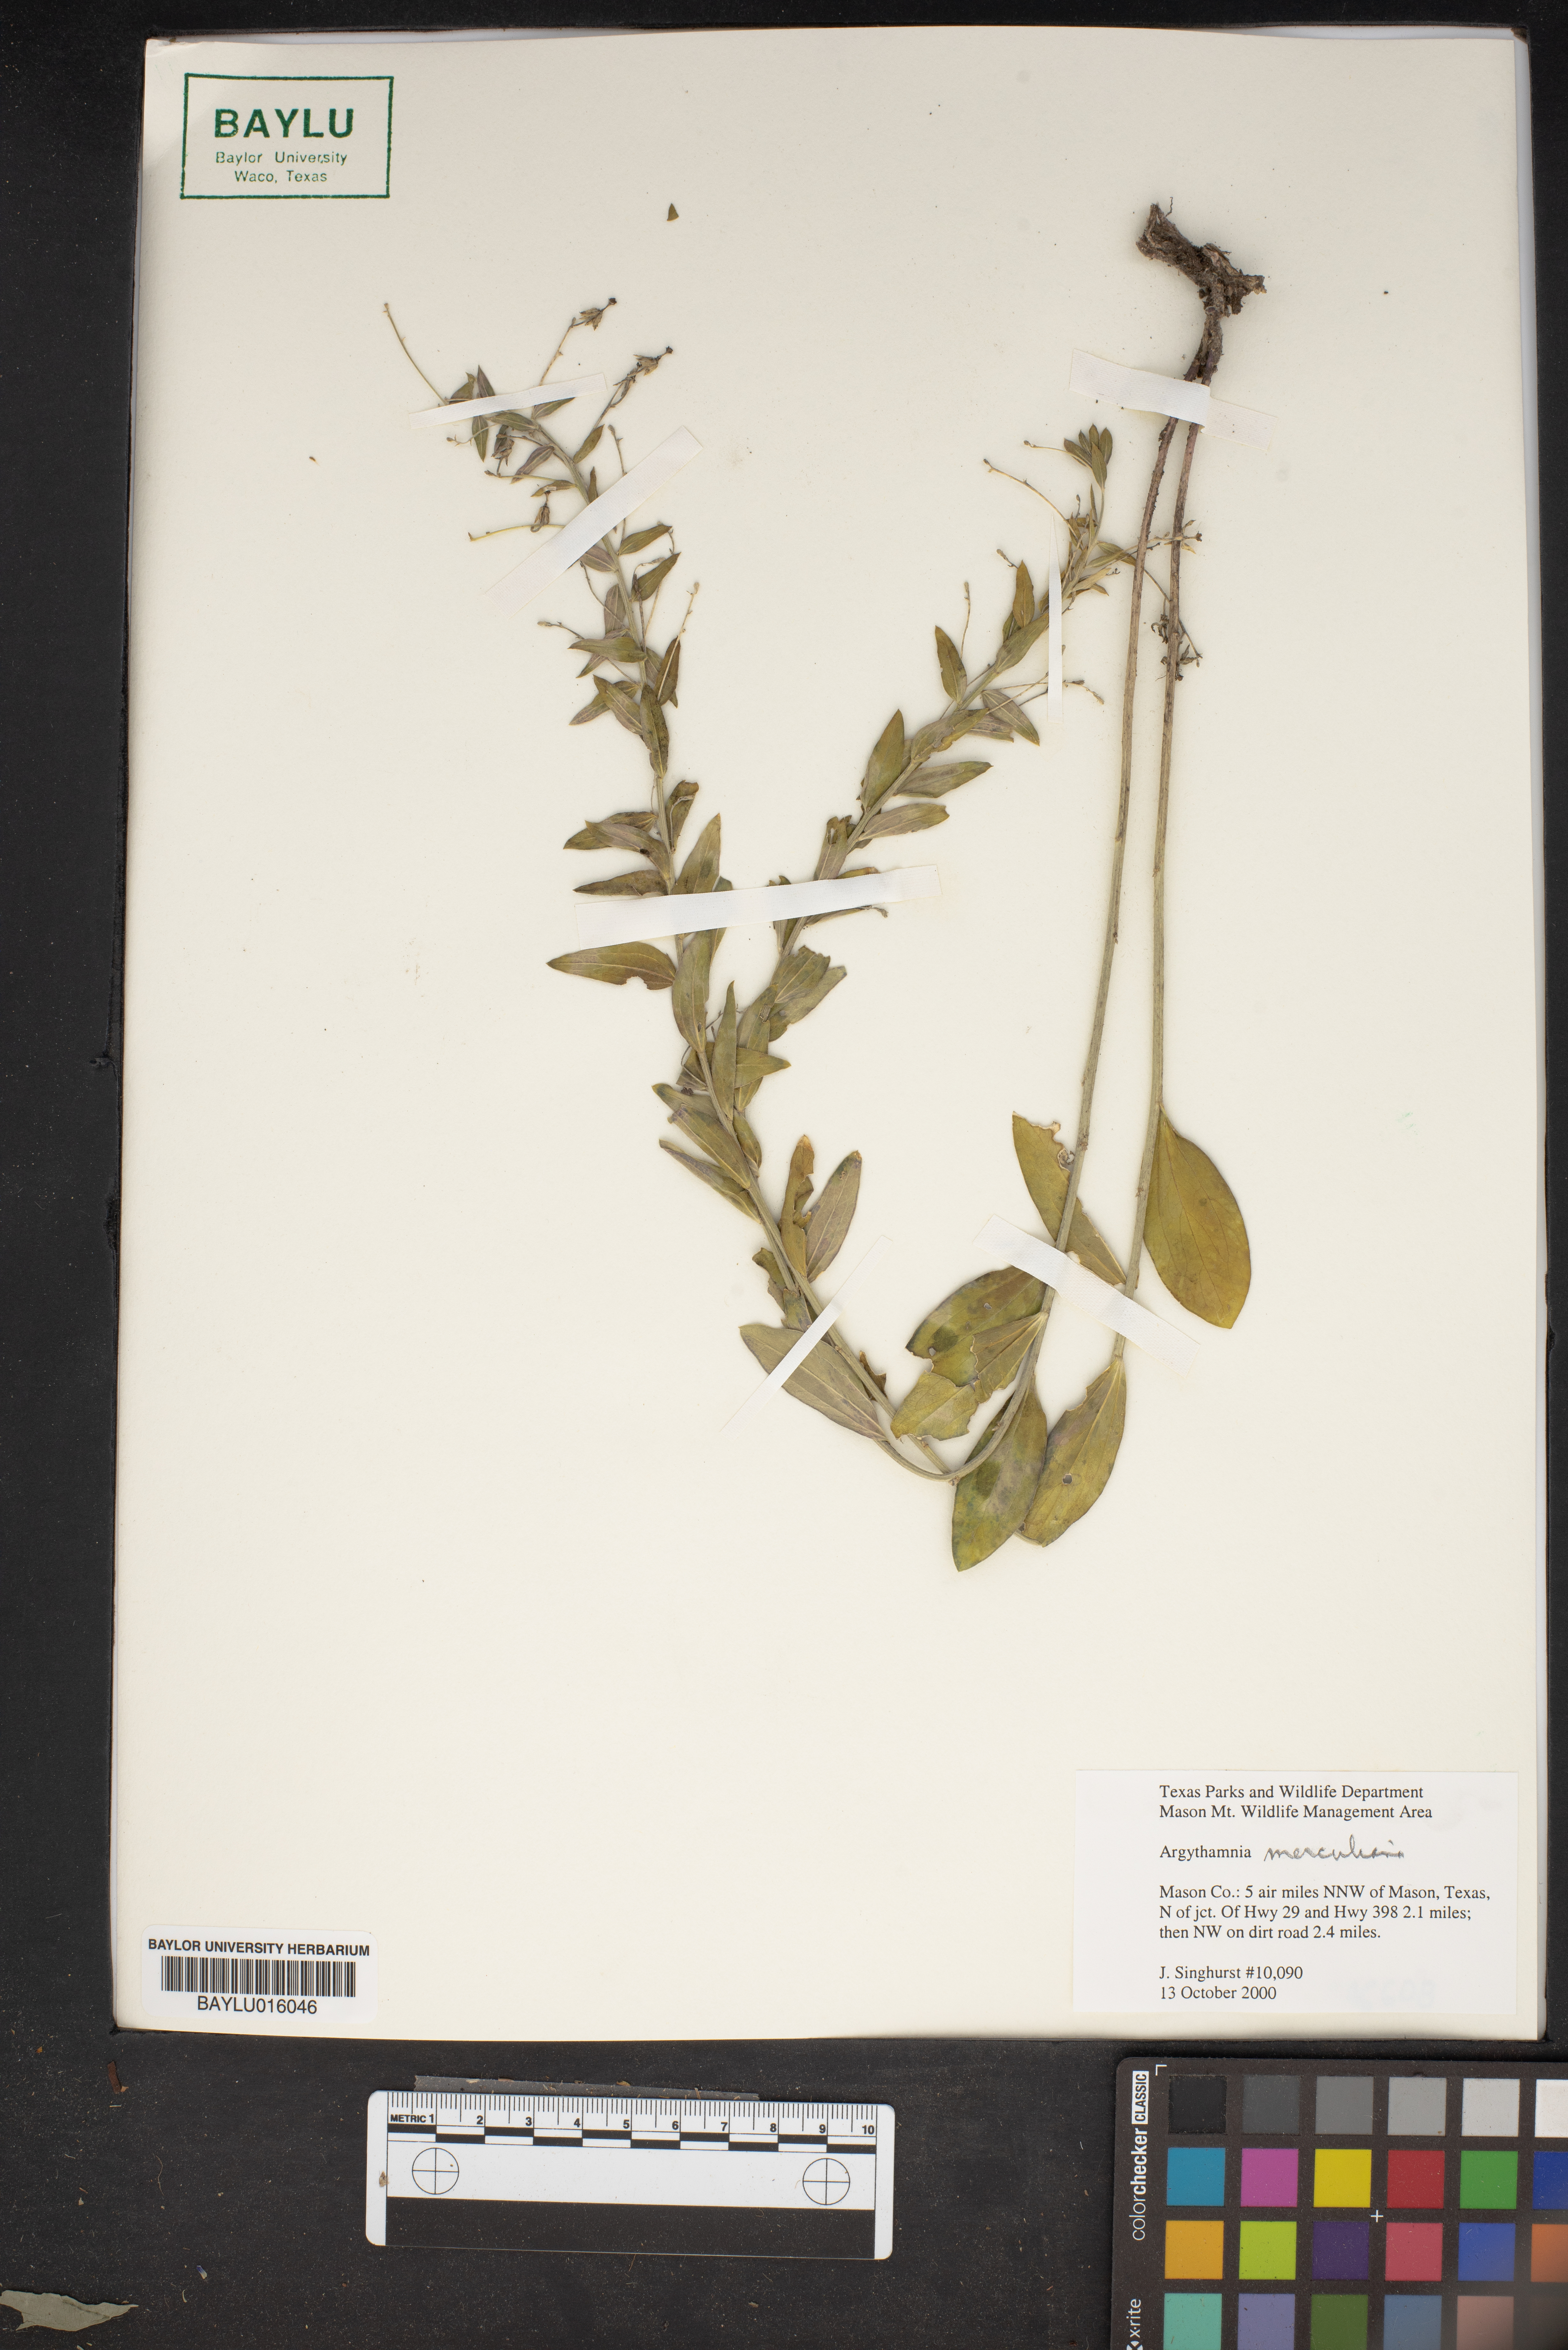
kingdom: Plantae
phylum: Tracheophyta
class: Magnoliopsida
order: Malpighiales
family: Euphorbiaceae
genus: Ditaxis
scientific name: Ditaxis mercurialina
